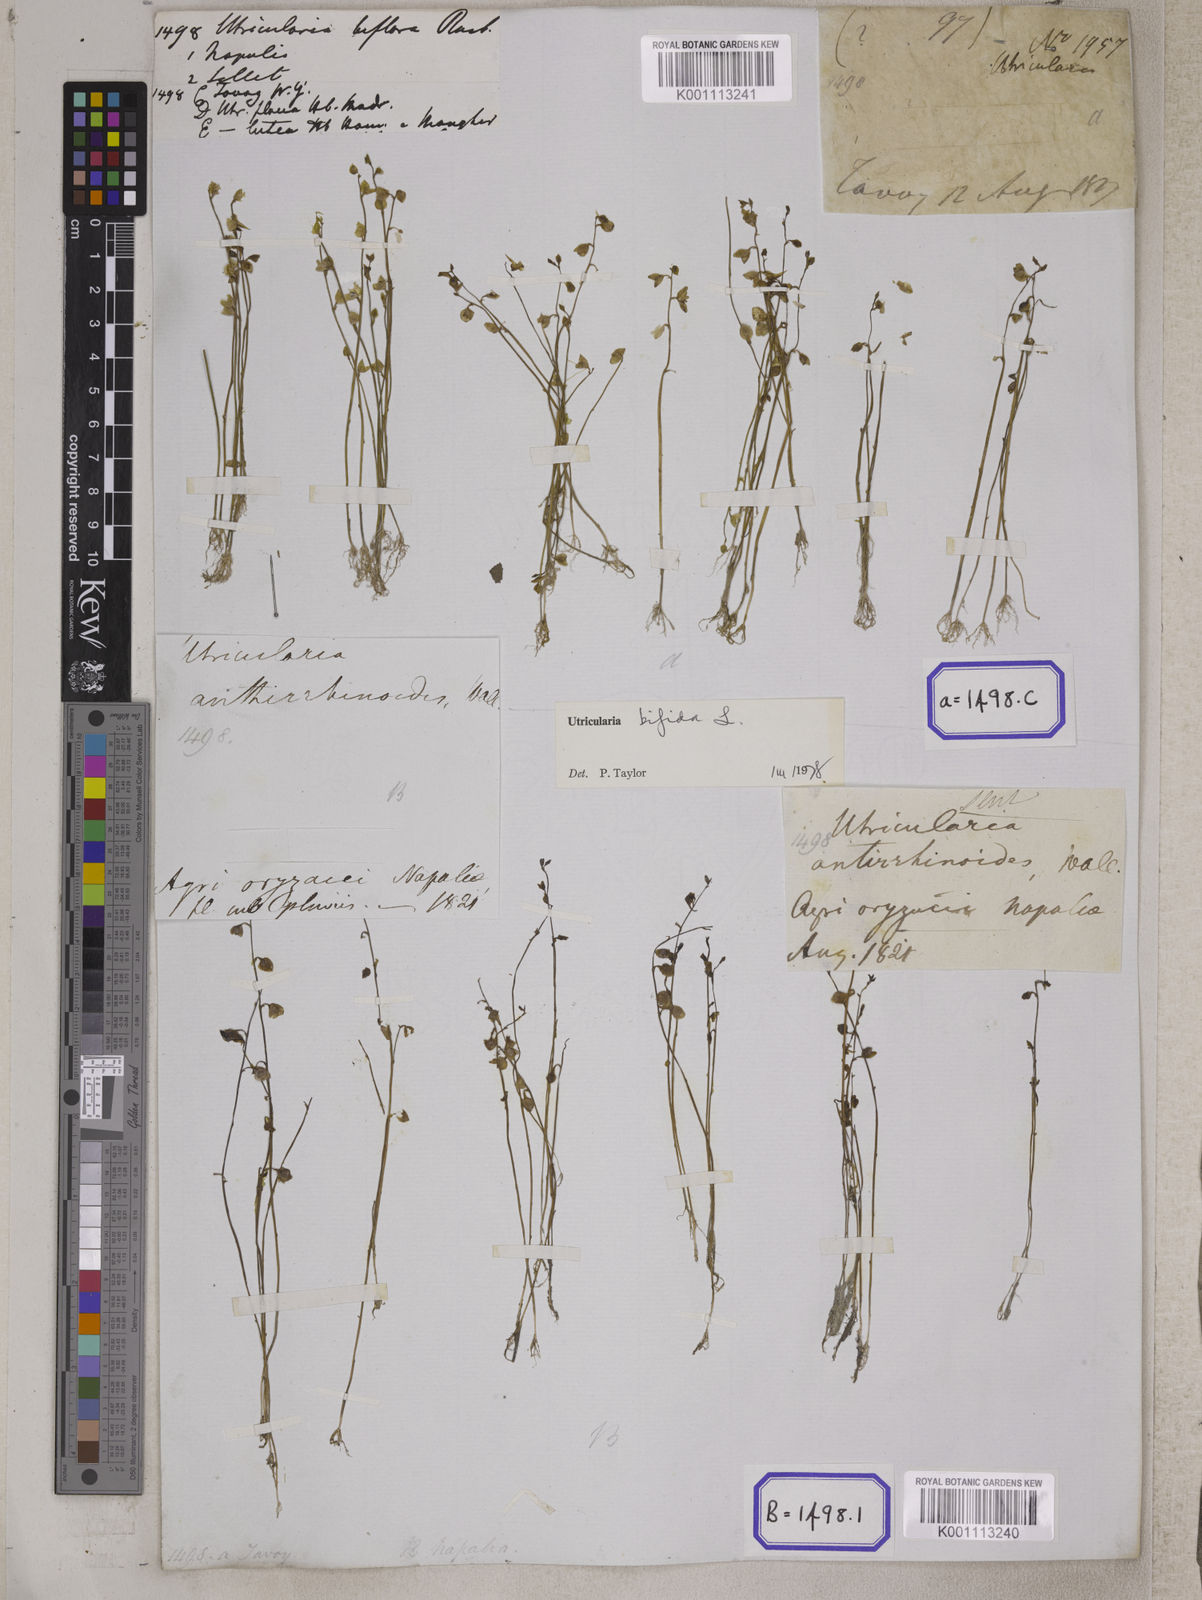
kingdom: Plantae
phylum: Tracheophyta
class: Magnoliopsida
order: Lamiales
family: Lentibulariaceae
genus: Utricularia
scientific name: Utricularia gibba
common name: Humped bladderwort
